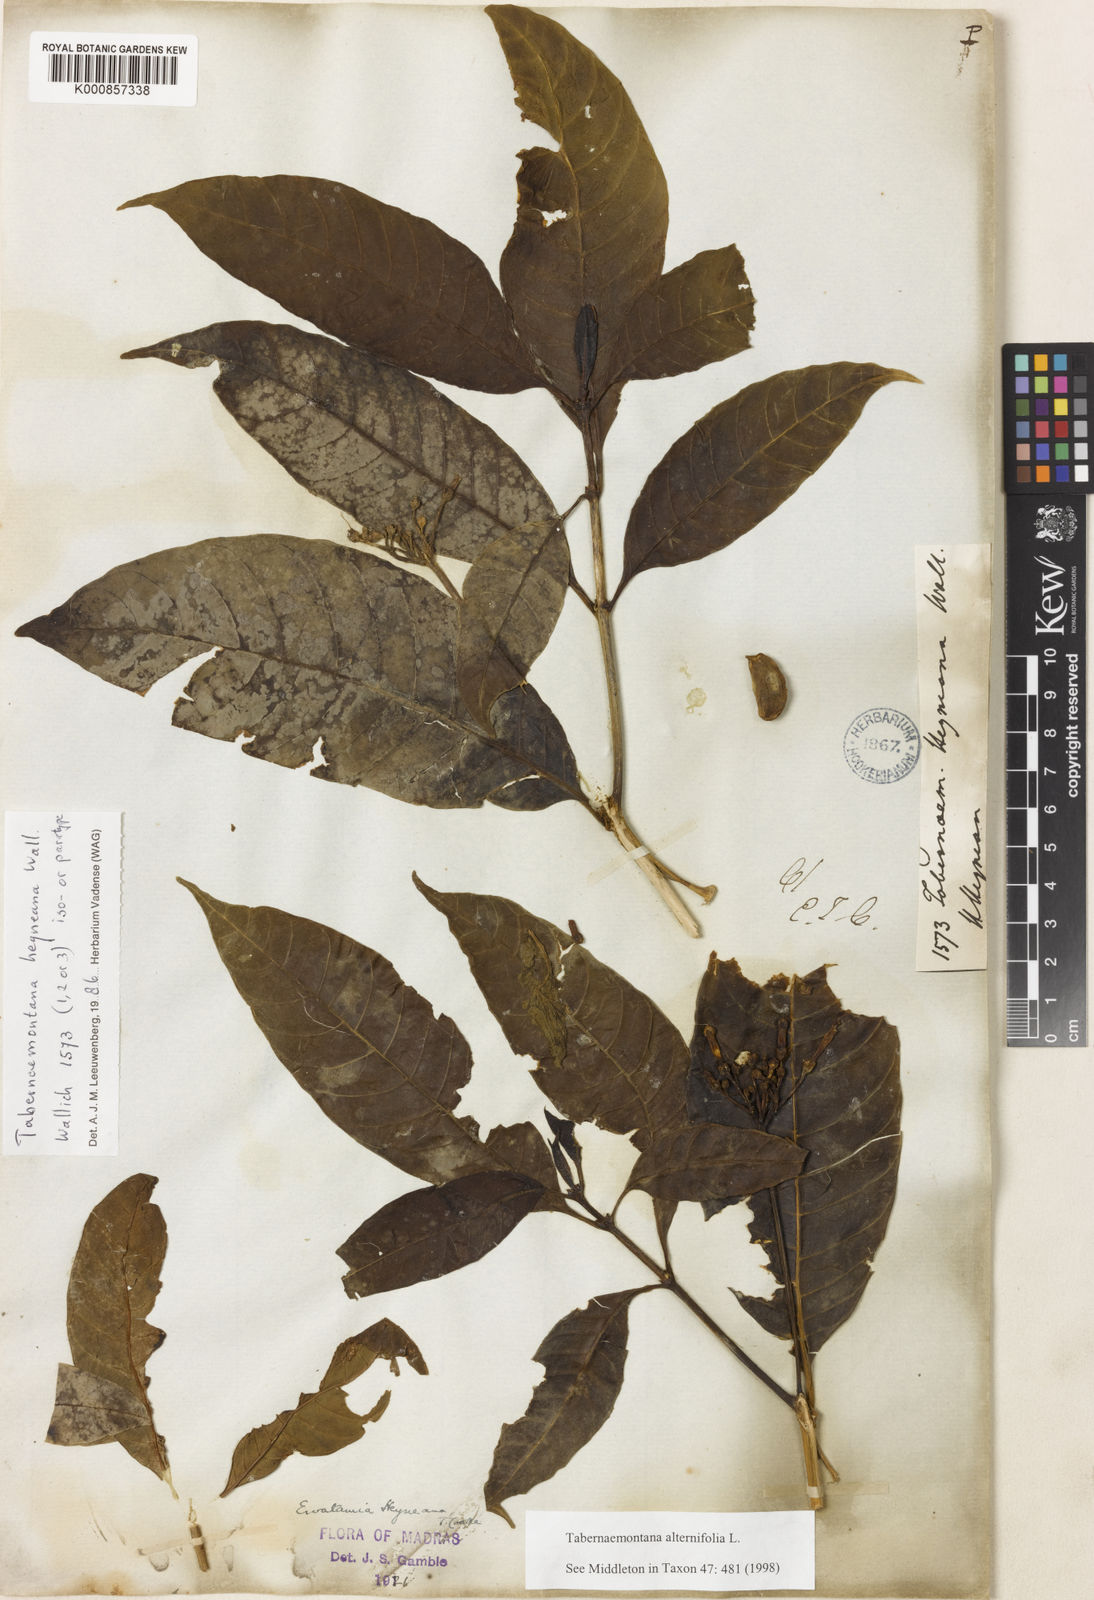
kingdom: Plantae
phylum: Tracheophyta
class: Magnoliopsida
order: Gentianales
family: Apocynaceae
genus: Tabernaemontana
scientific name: Tabernaemontana alternifolia
